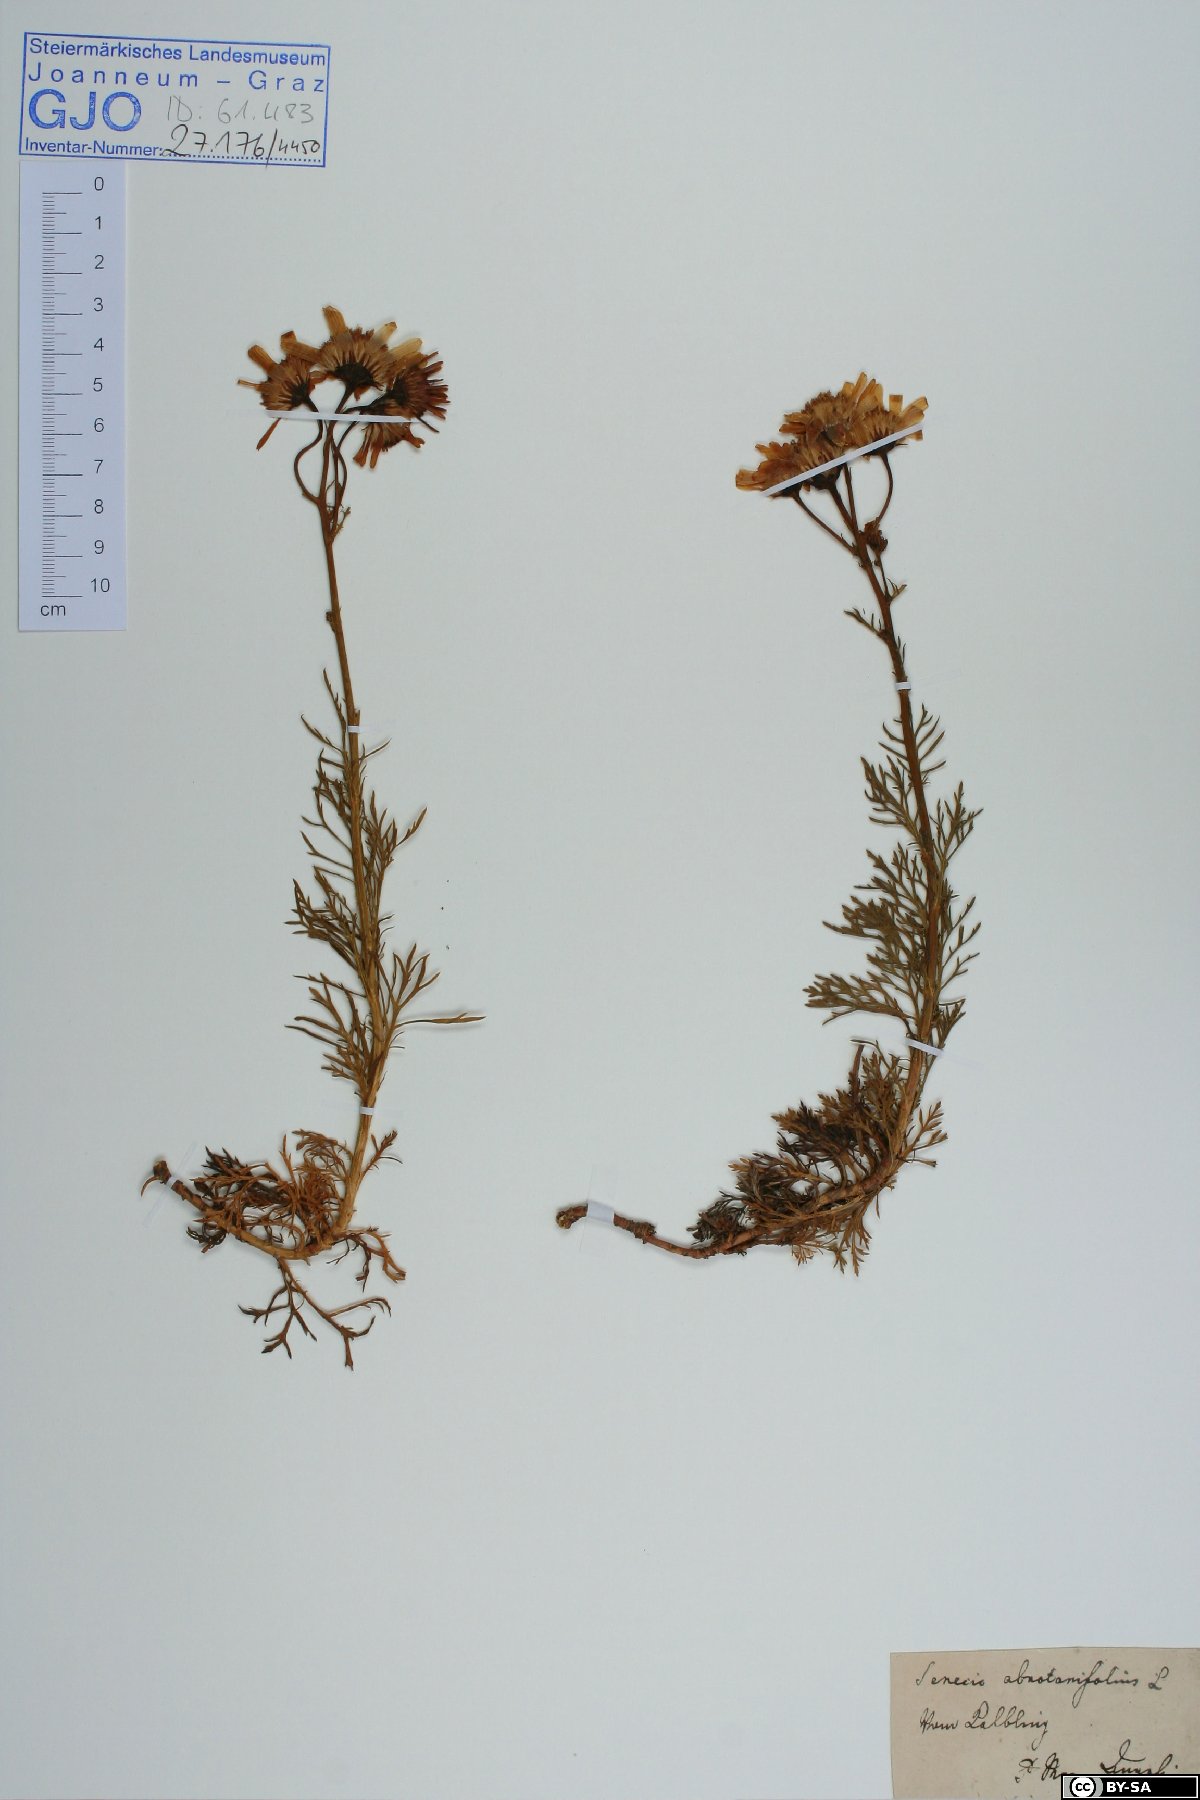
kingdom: Plantae
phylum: Tracheophyta
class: Magnoliopsida
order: Asterales
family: Asteraceae
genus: Jacobaea
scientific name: Jacobaea abrotanifolia
